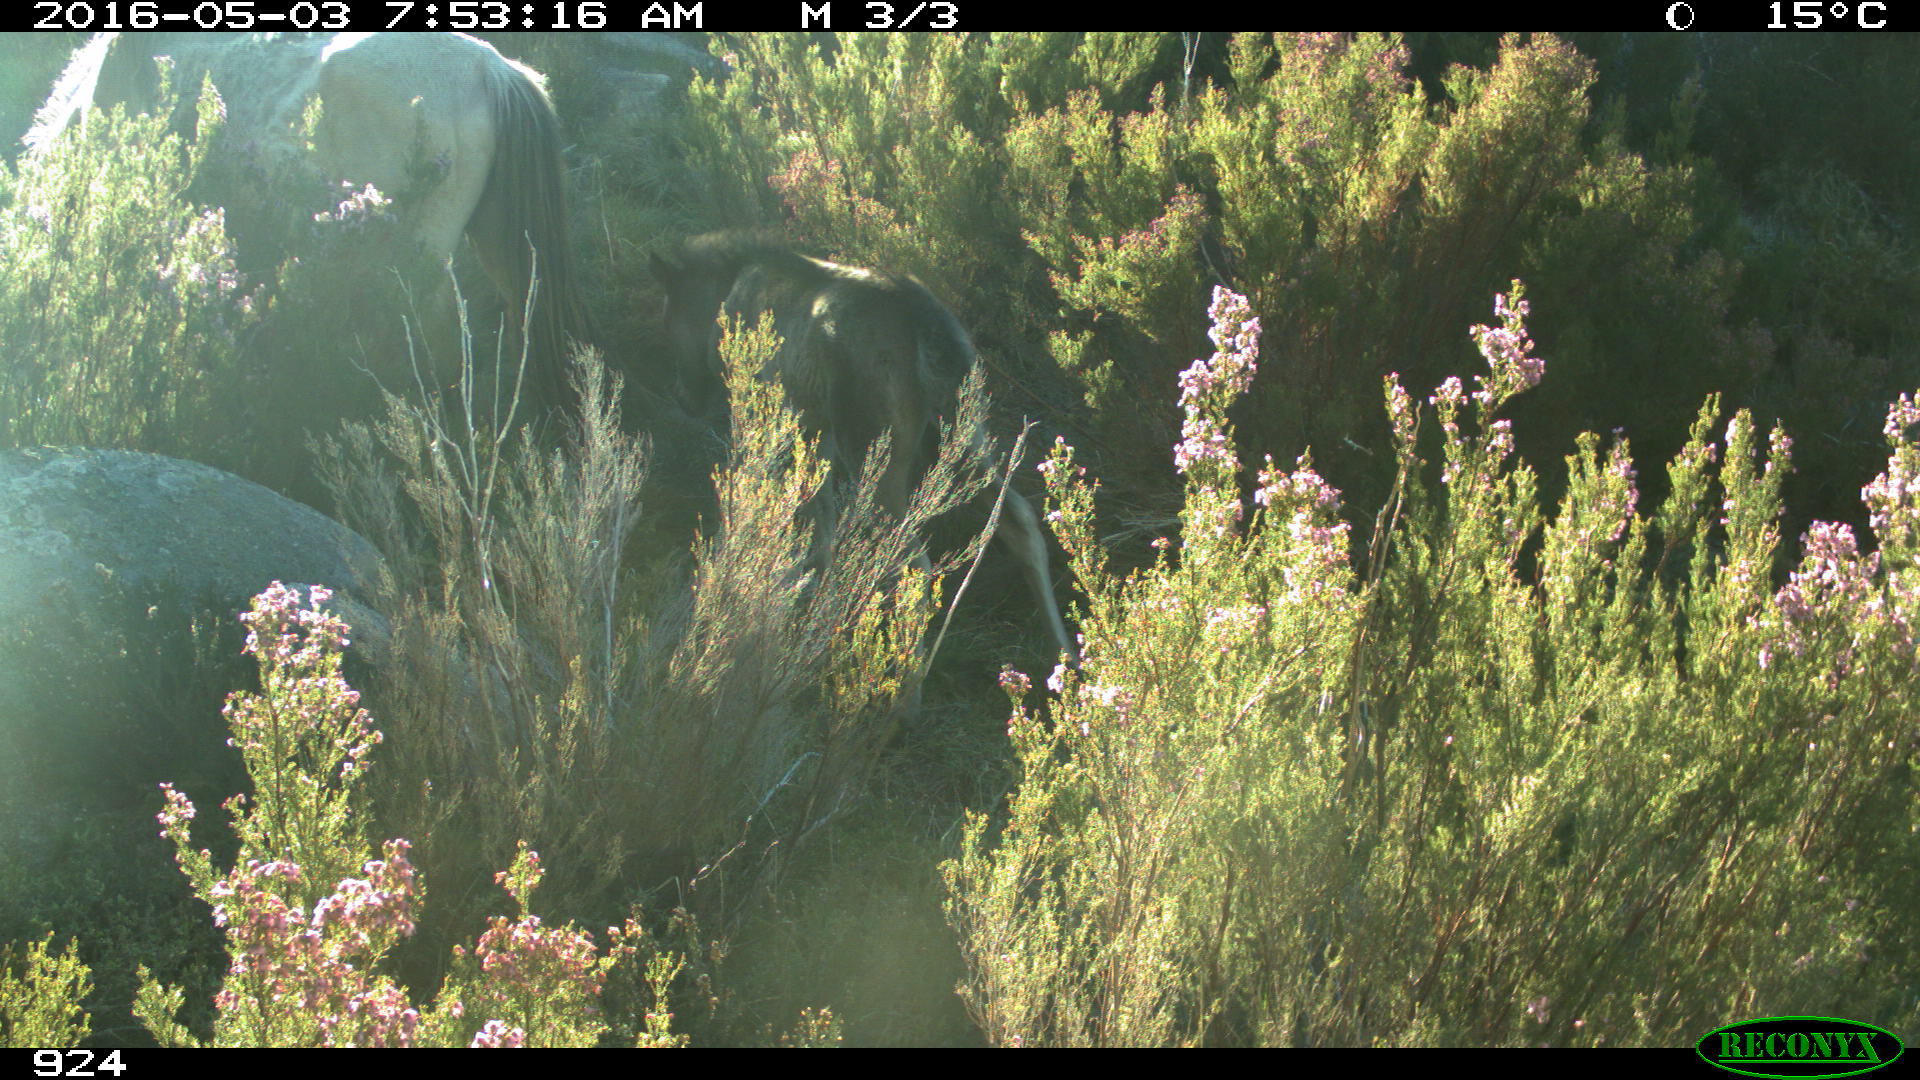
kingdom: Animalia
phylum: Chordata
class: Mammalia
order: Perissodactyla
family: Equidae
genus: Equus
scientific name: Equus caballus
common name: Horse
